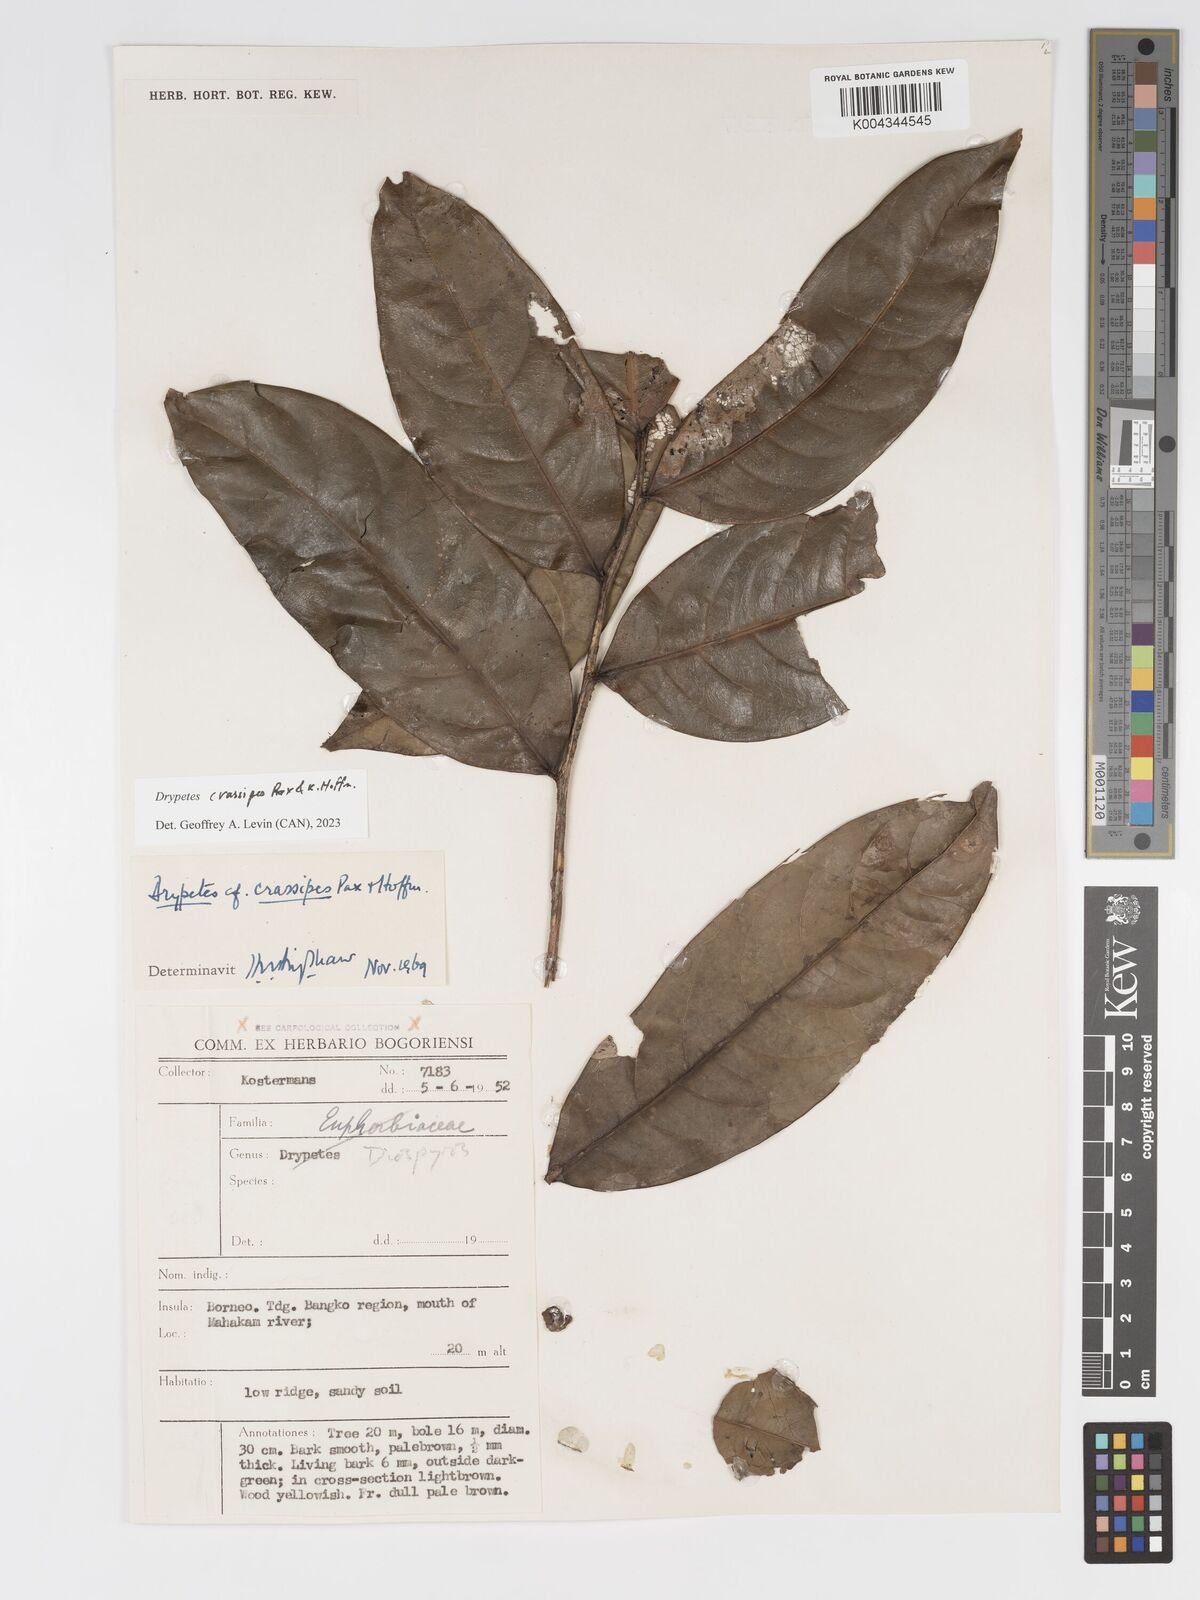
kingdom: Plantae
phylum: Tracheophyta
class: Magnoliopsida
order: Malpighiales
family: Putranjivaceae
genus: Drypetes
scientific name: Drypetes crassipes
